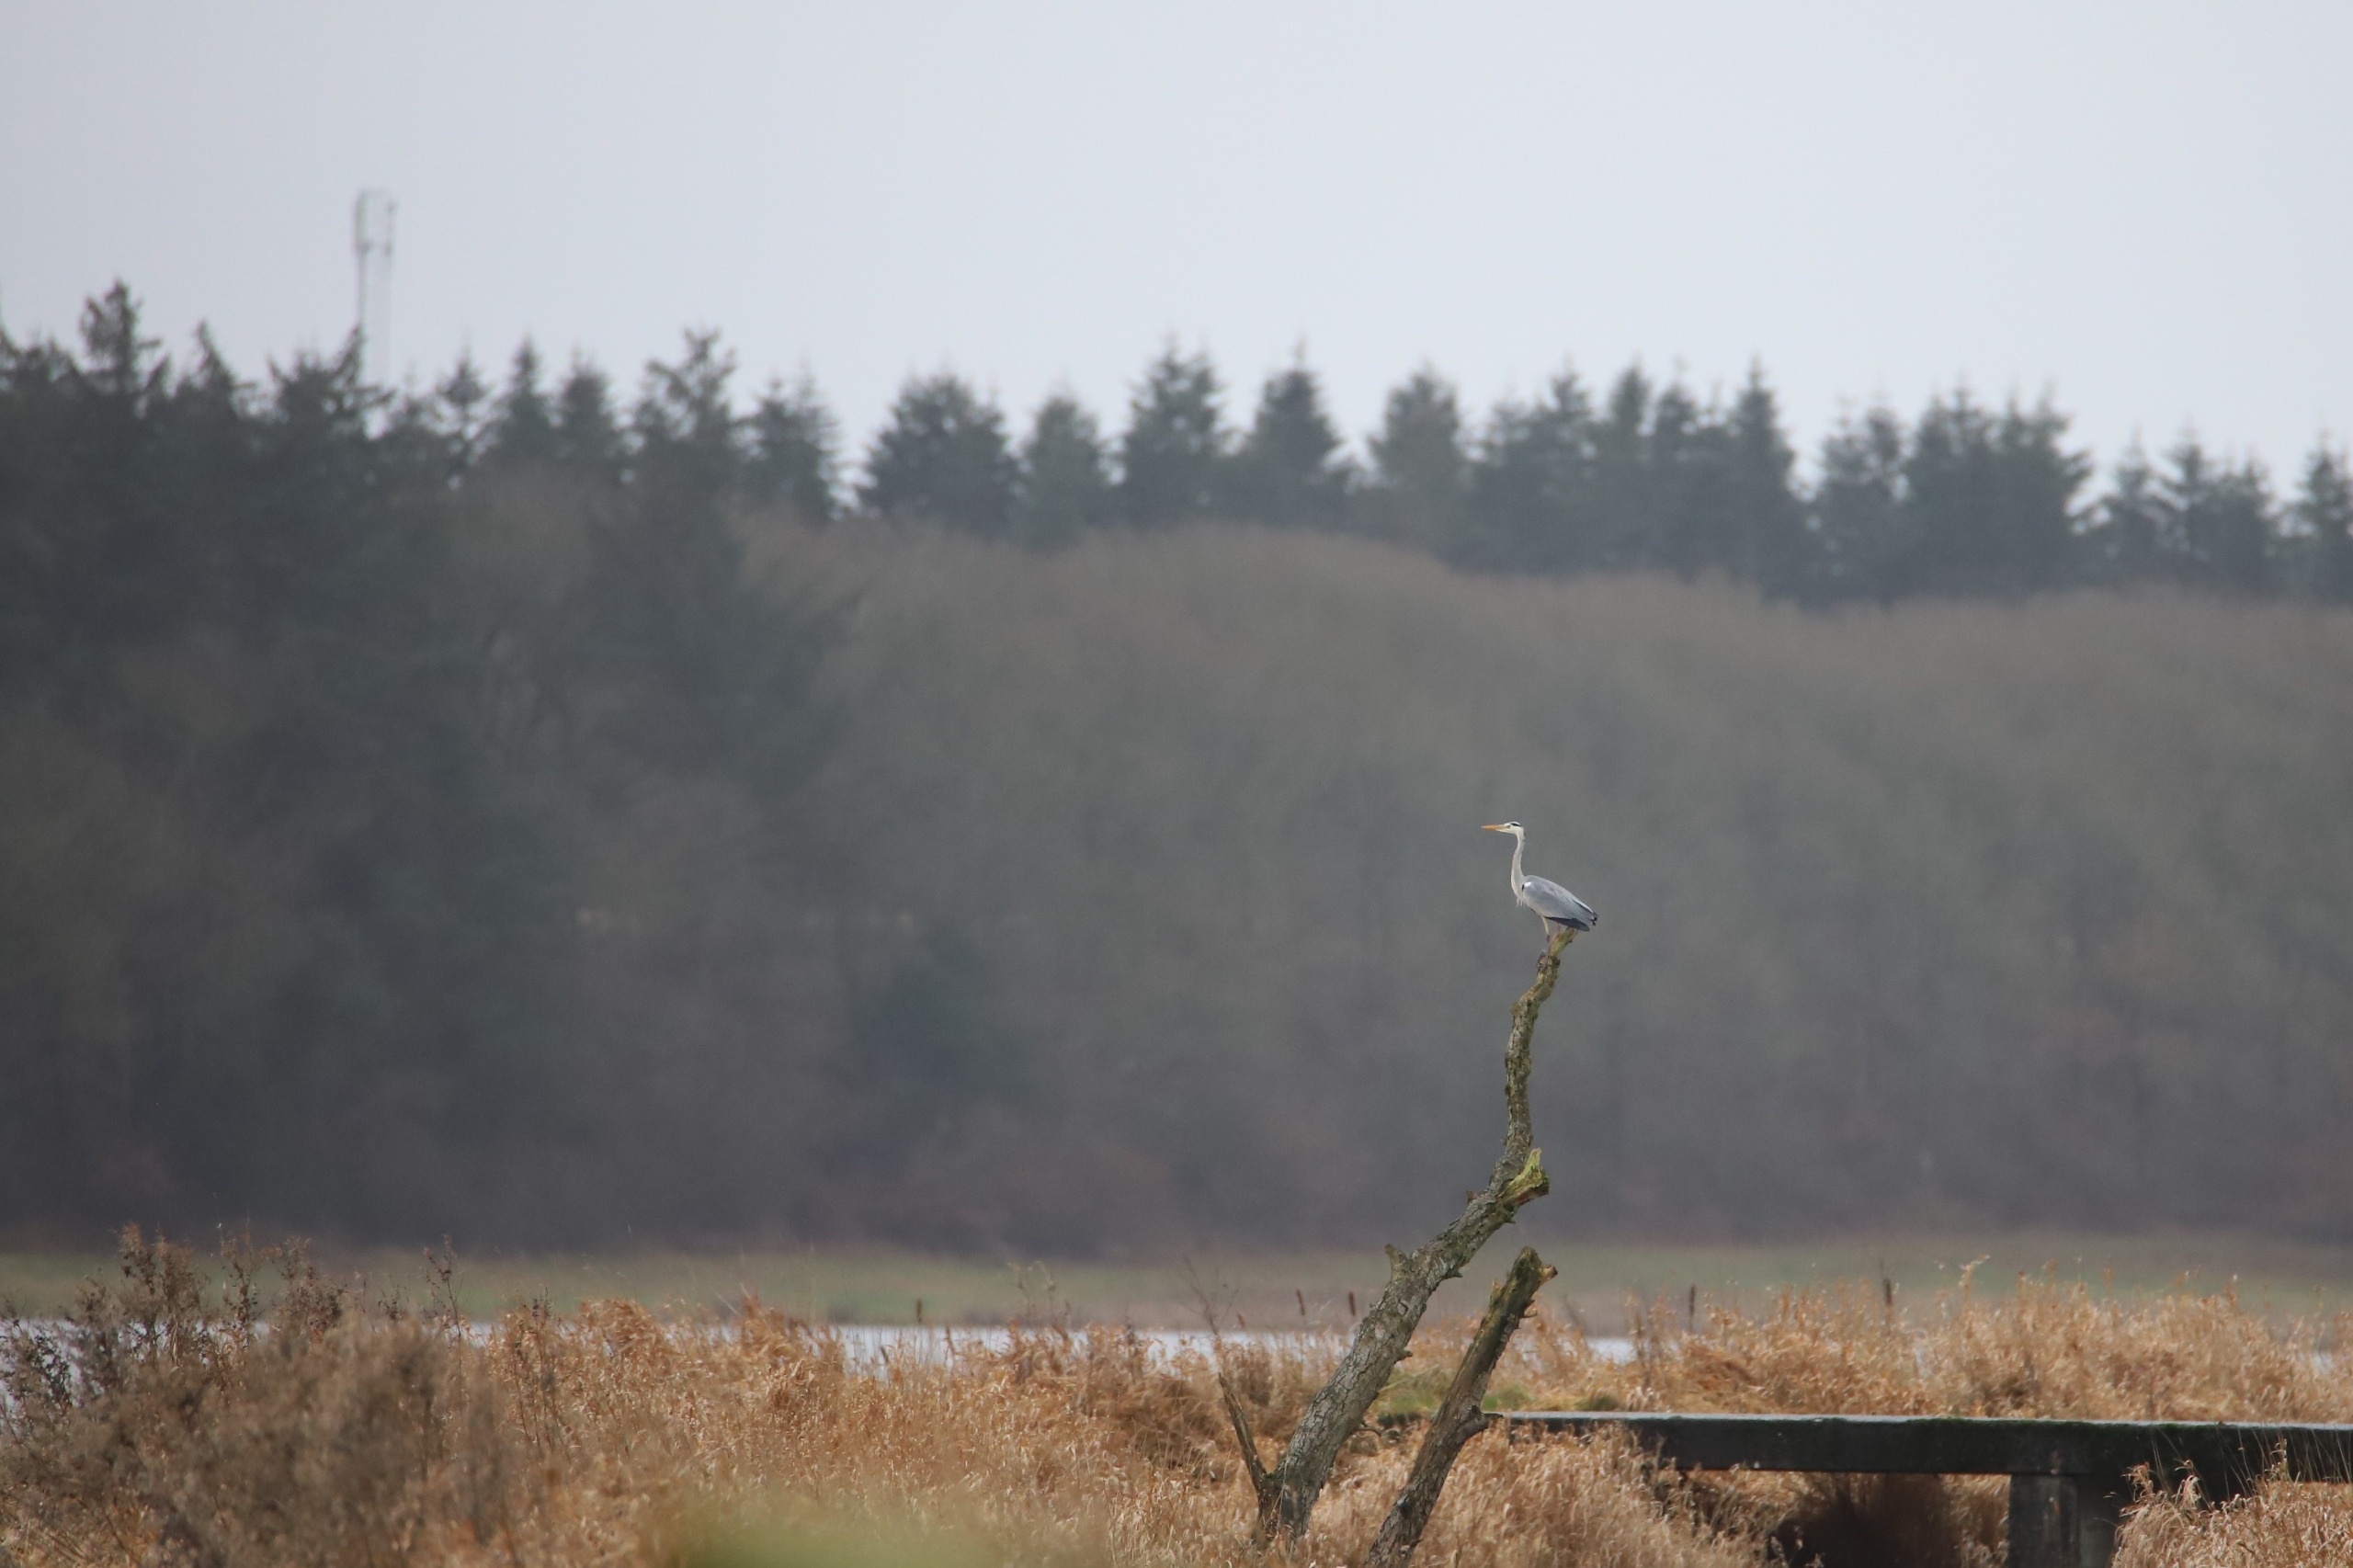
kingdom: Animalia
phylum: Chordata
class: Aves
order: Pelecaniformes
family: Ardeidae
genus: Ardea
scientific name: Ardea cinerea
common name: Fiskehejre
